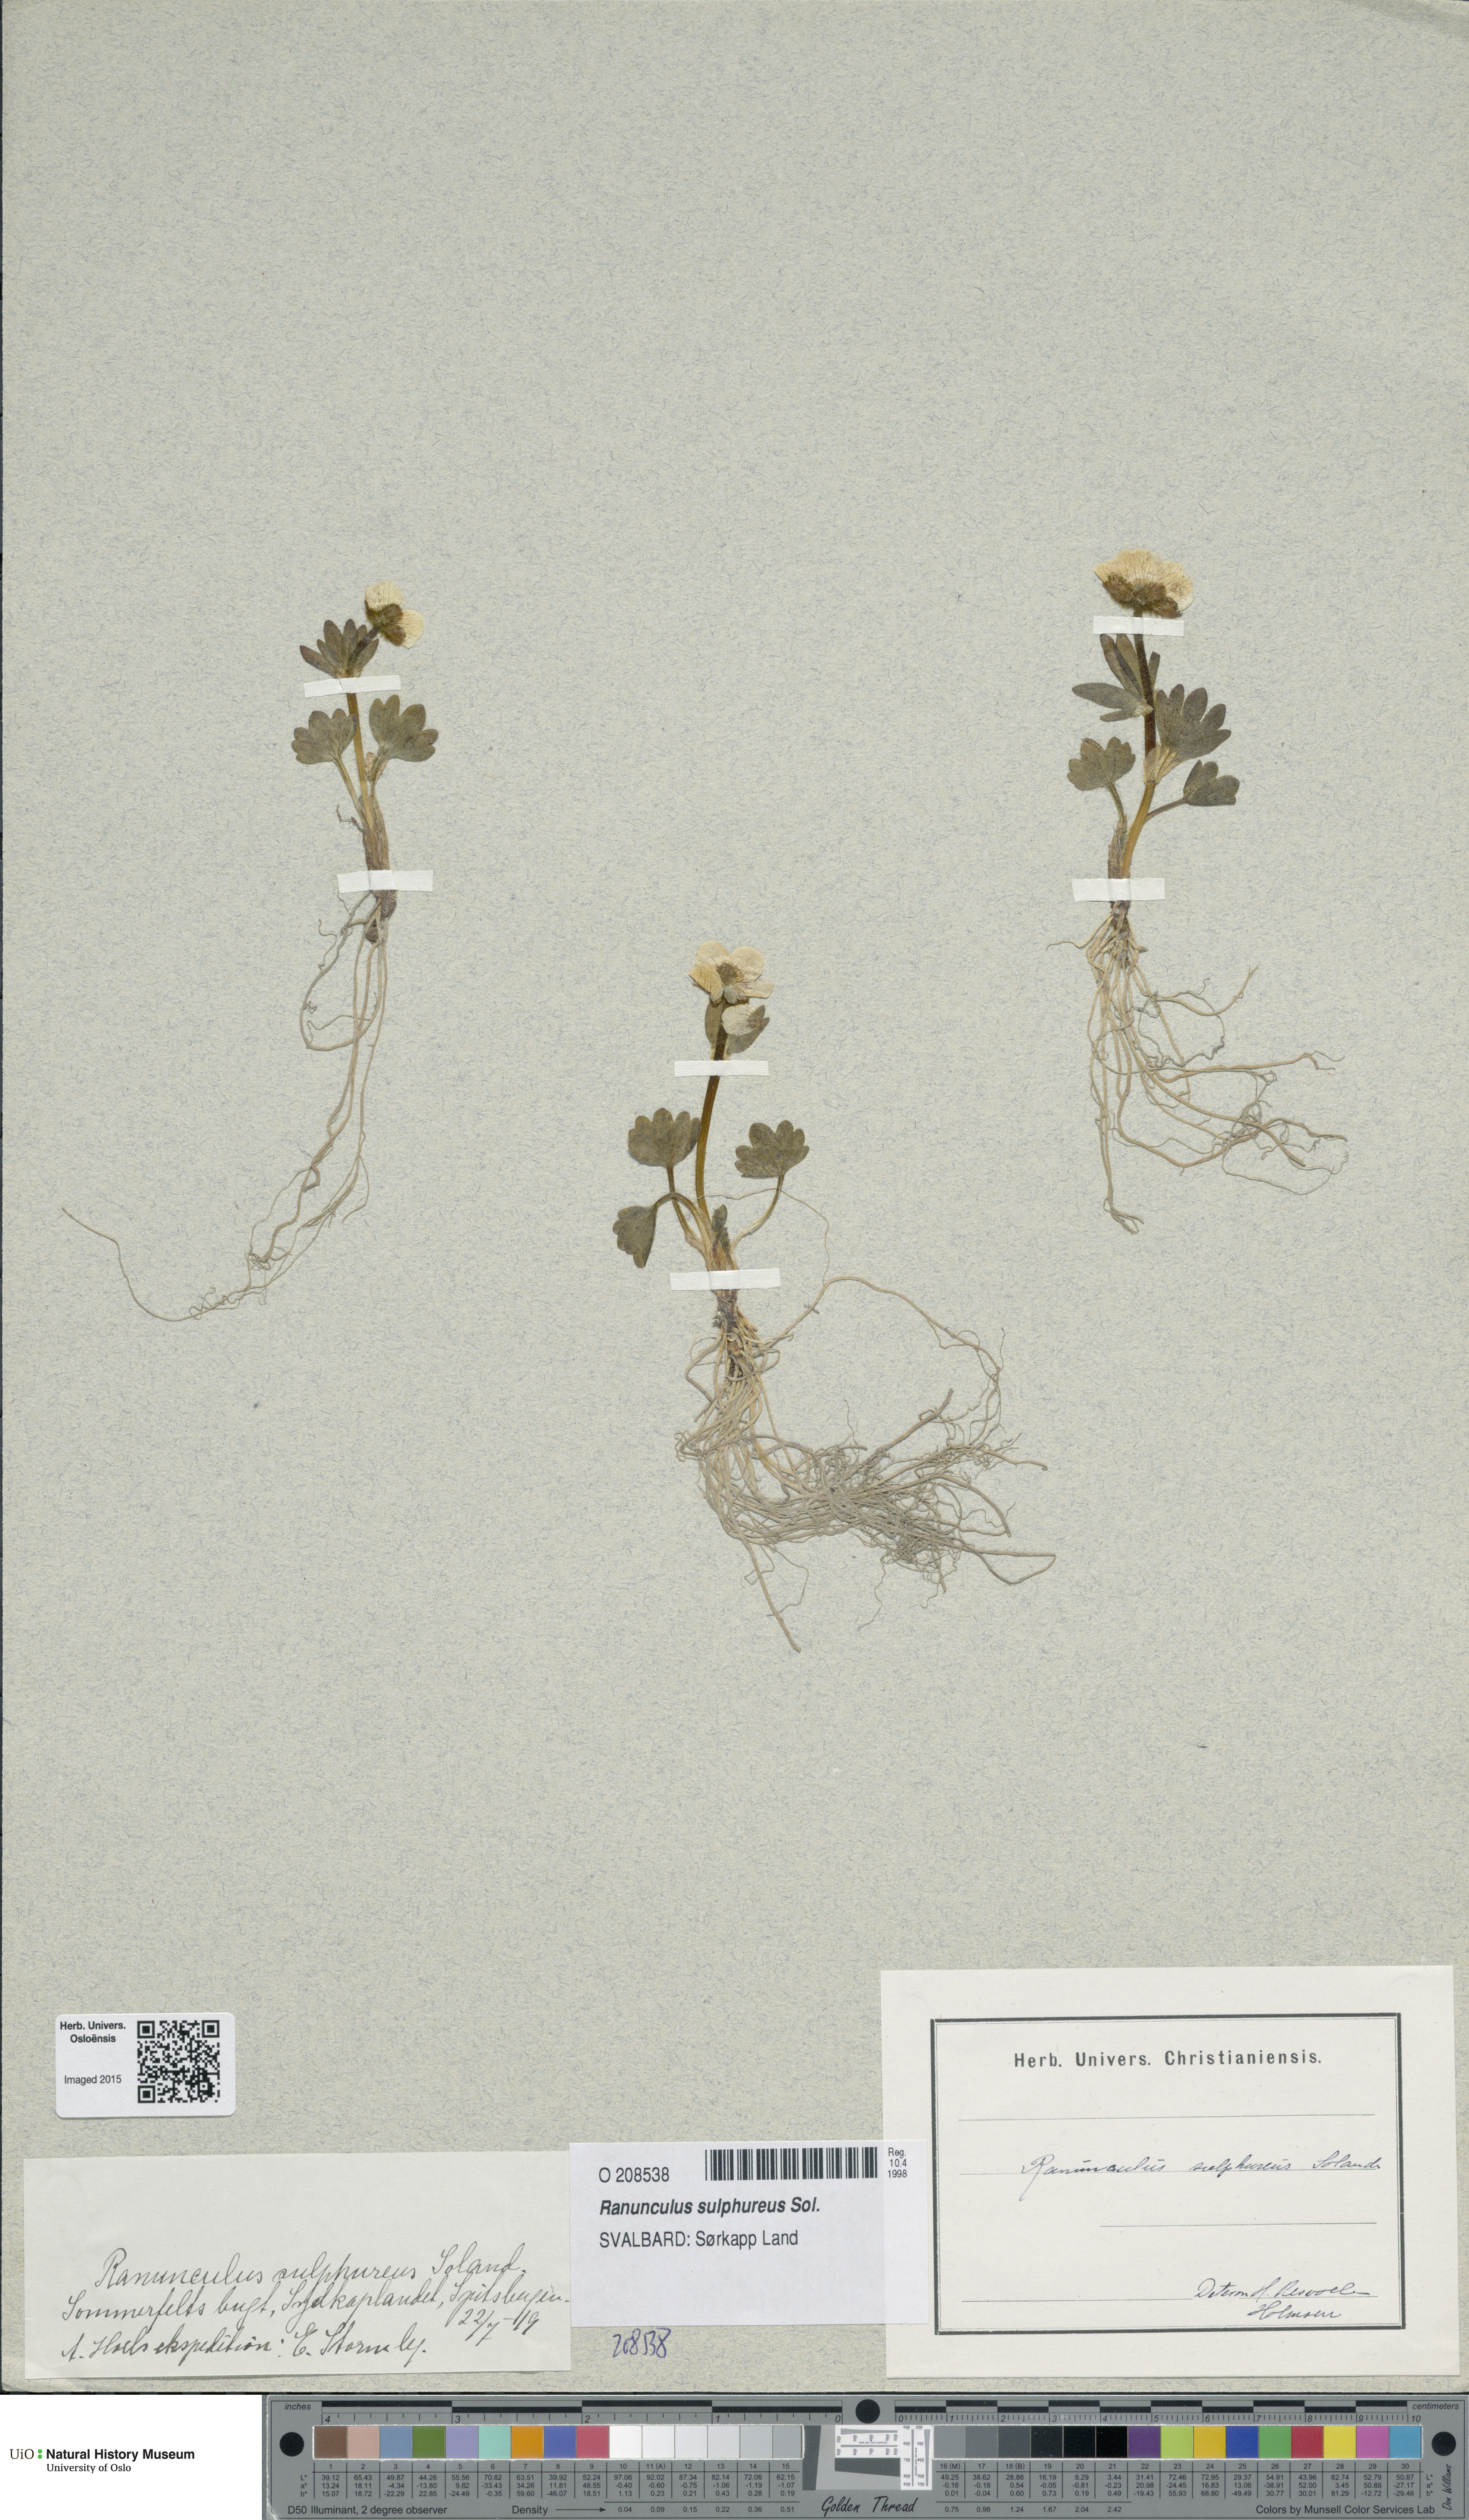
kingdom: Plantae
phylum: Tracheophyta
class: Magnoliopsida
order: Ranunculales
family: Ranunculaceae
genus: Ranunculus
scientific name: Ranunculus sulphureus
